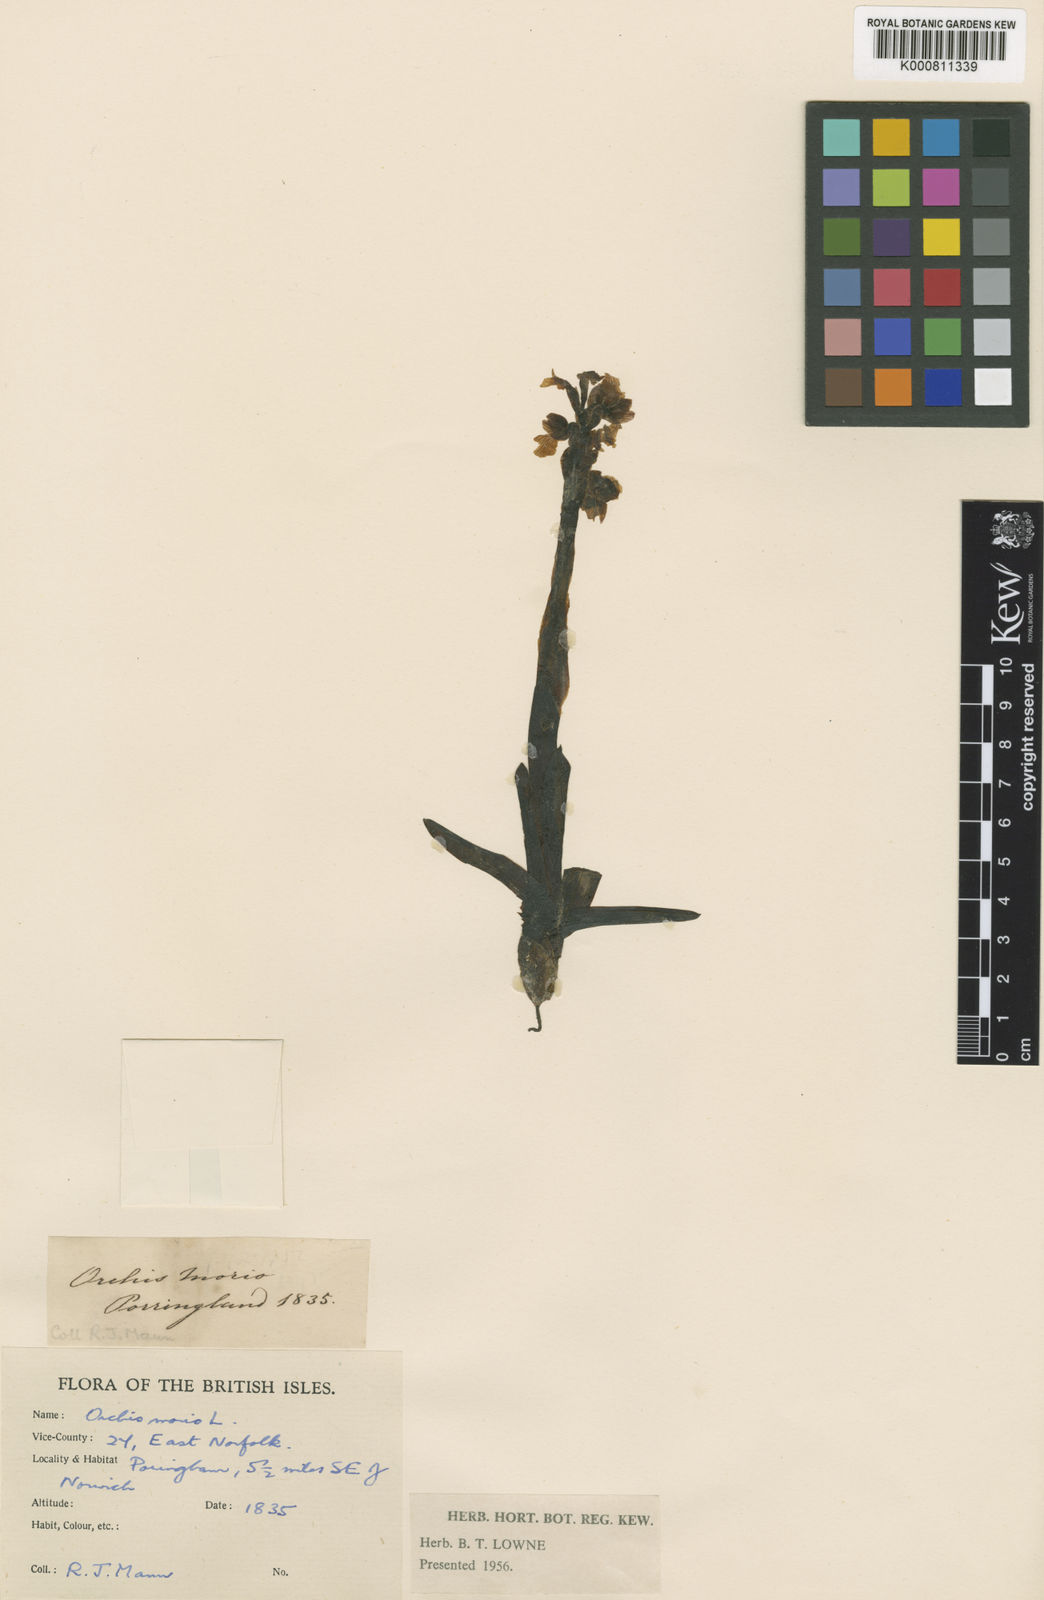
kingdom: Plantae
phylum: Tracheophyta
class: Liliopsida
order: Asparagales
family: Orchidaceae
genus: Anacamptis
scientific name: Anacamptis morio
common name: Green-winged orchid
